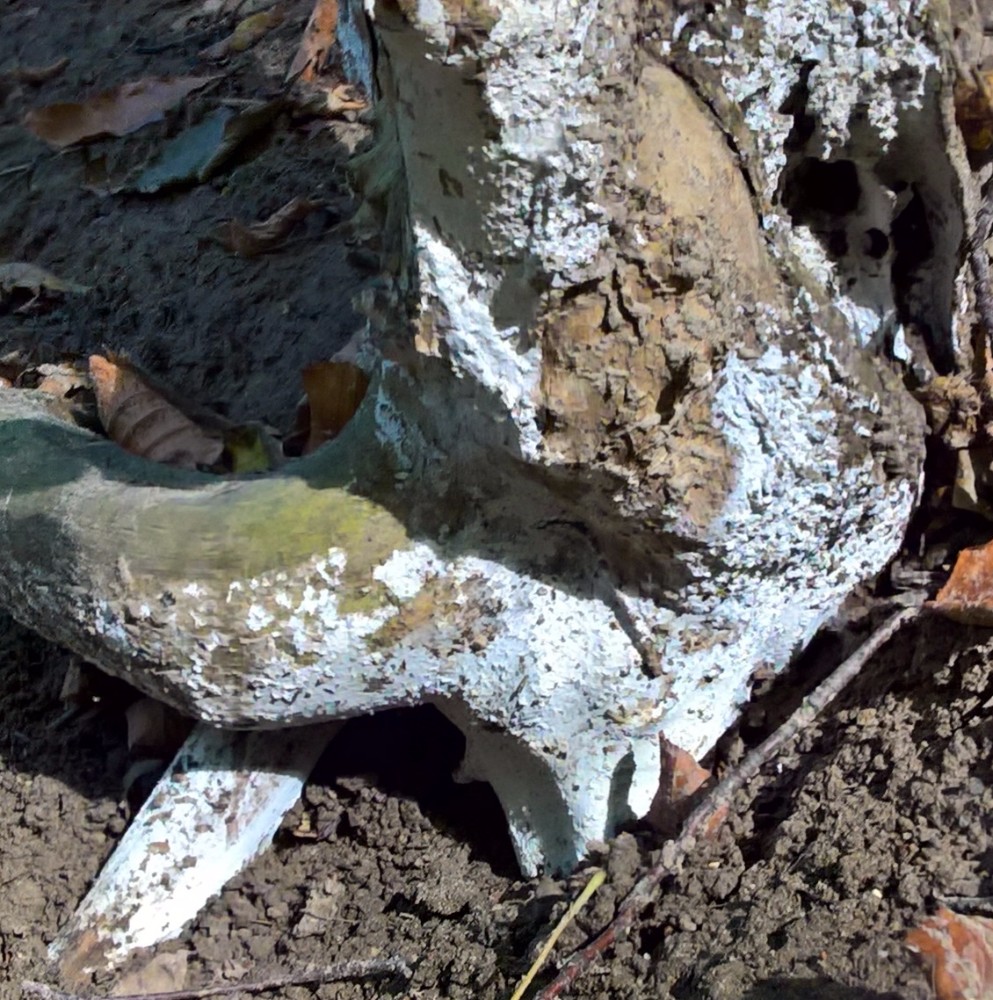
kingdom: Fungi
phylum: Basidiomycota
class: Agaricomycetes
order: Corticiales
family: Corticiaceae
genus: Lyomyces
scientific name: Lyomyces sambuci
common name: almindelig hyldehinde
